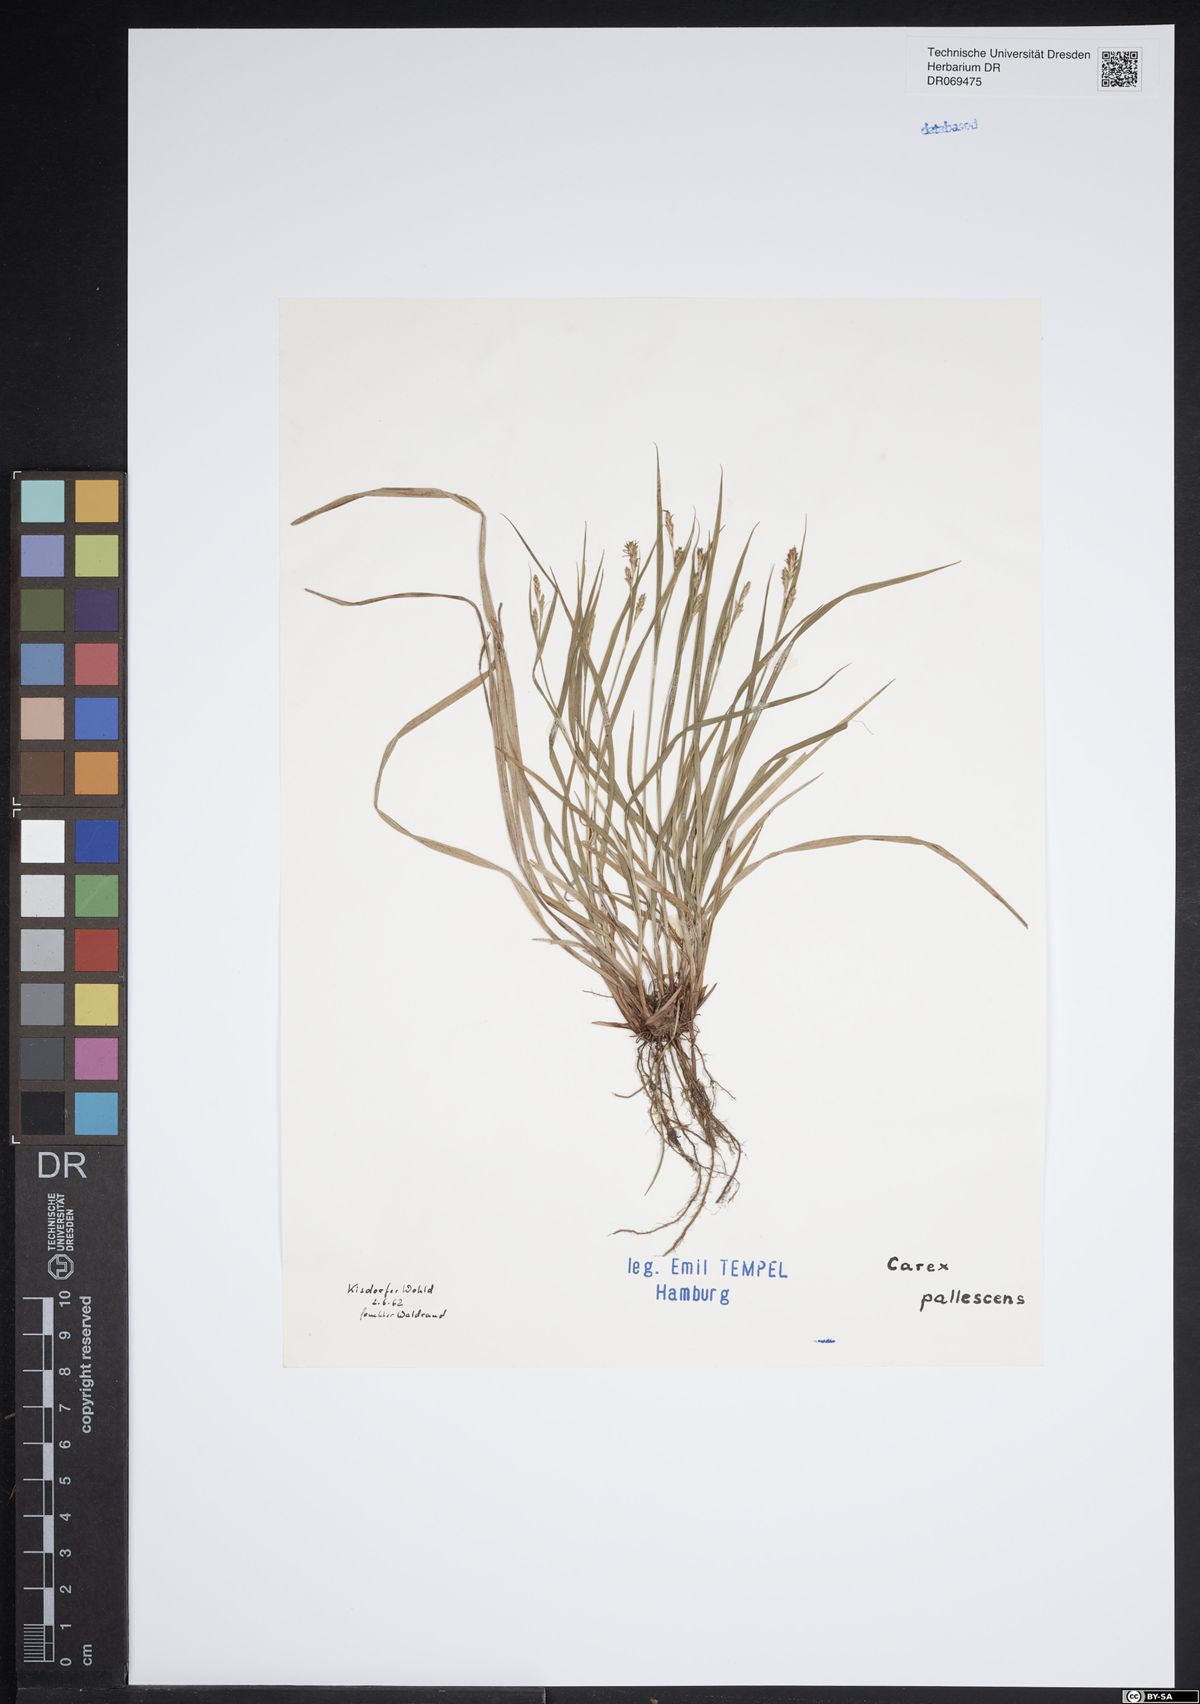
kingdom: Plantae
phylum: Tracheophyta
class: Liliopsida
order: Poales
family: Cyperaceae
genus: Carex
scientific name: Carex pallescens
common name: Pale sedge
